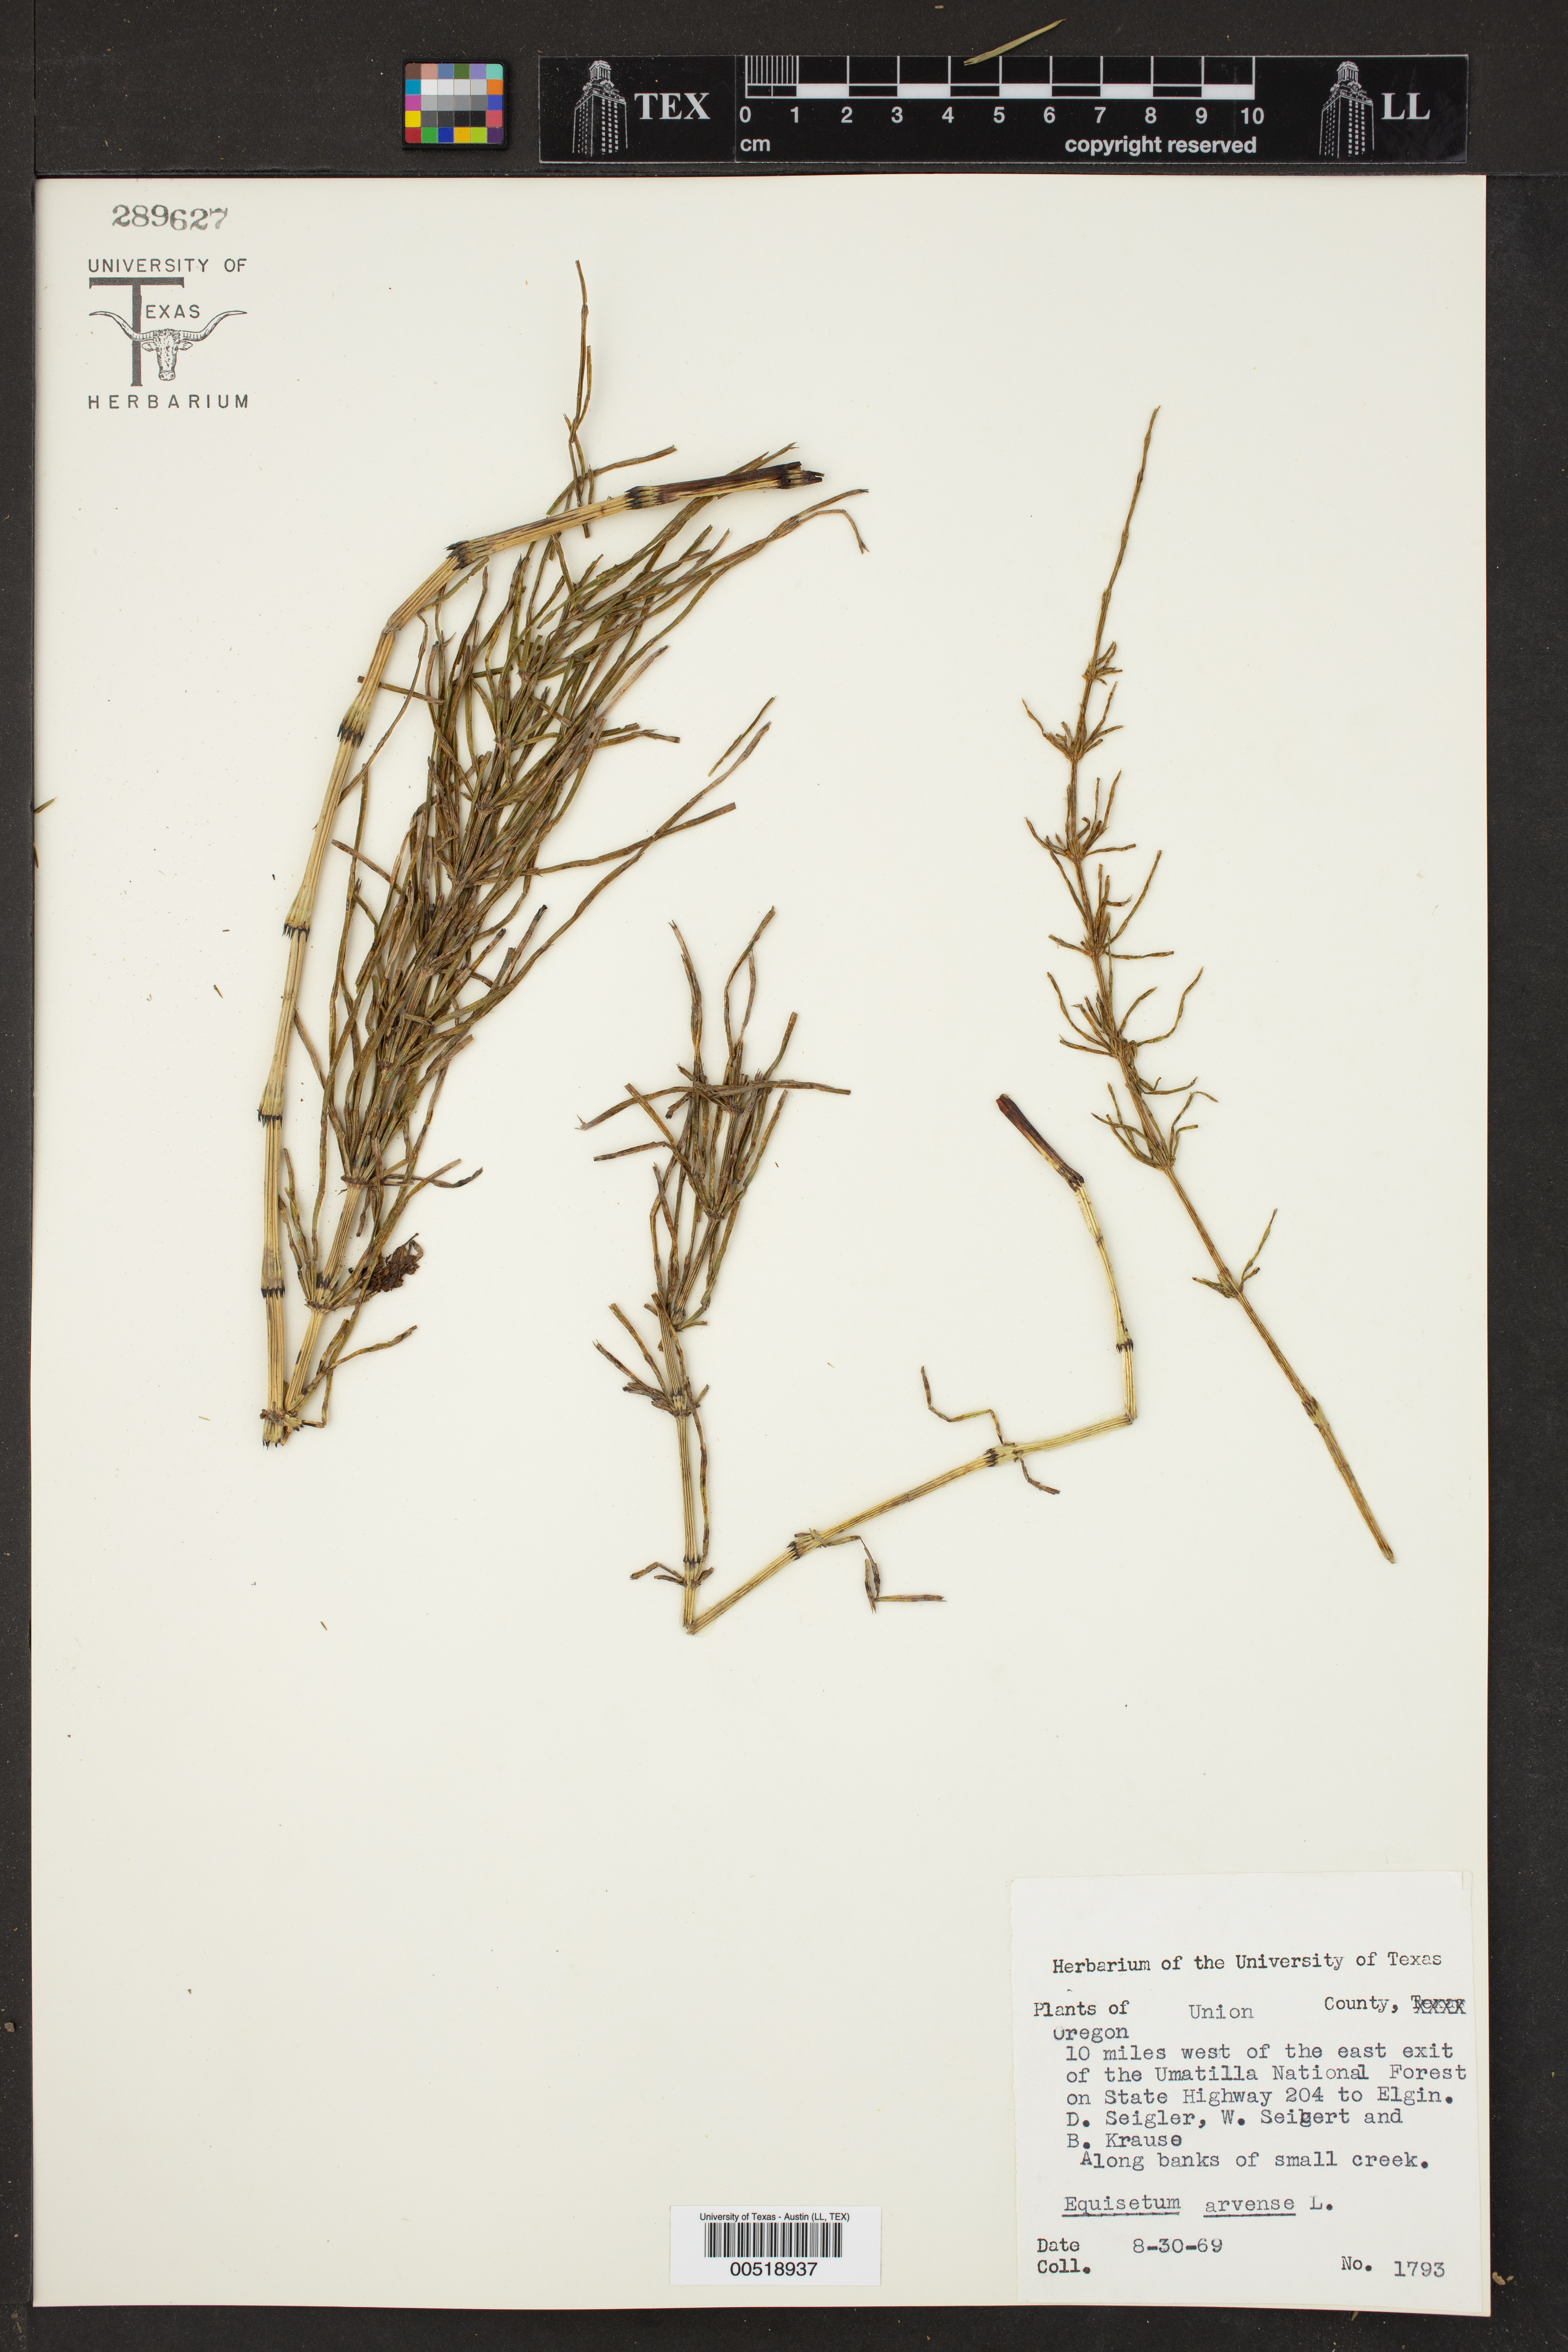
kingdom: Plantae
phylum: Tracheophyta
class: Polypodiopsida
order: Equisetales
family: Equisetaceae
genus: Equisetum
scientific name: Equisetum arvense
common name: Field horsetail
